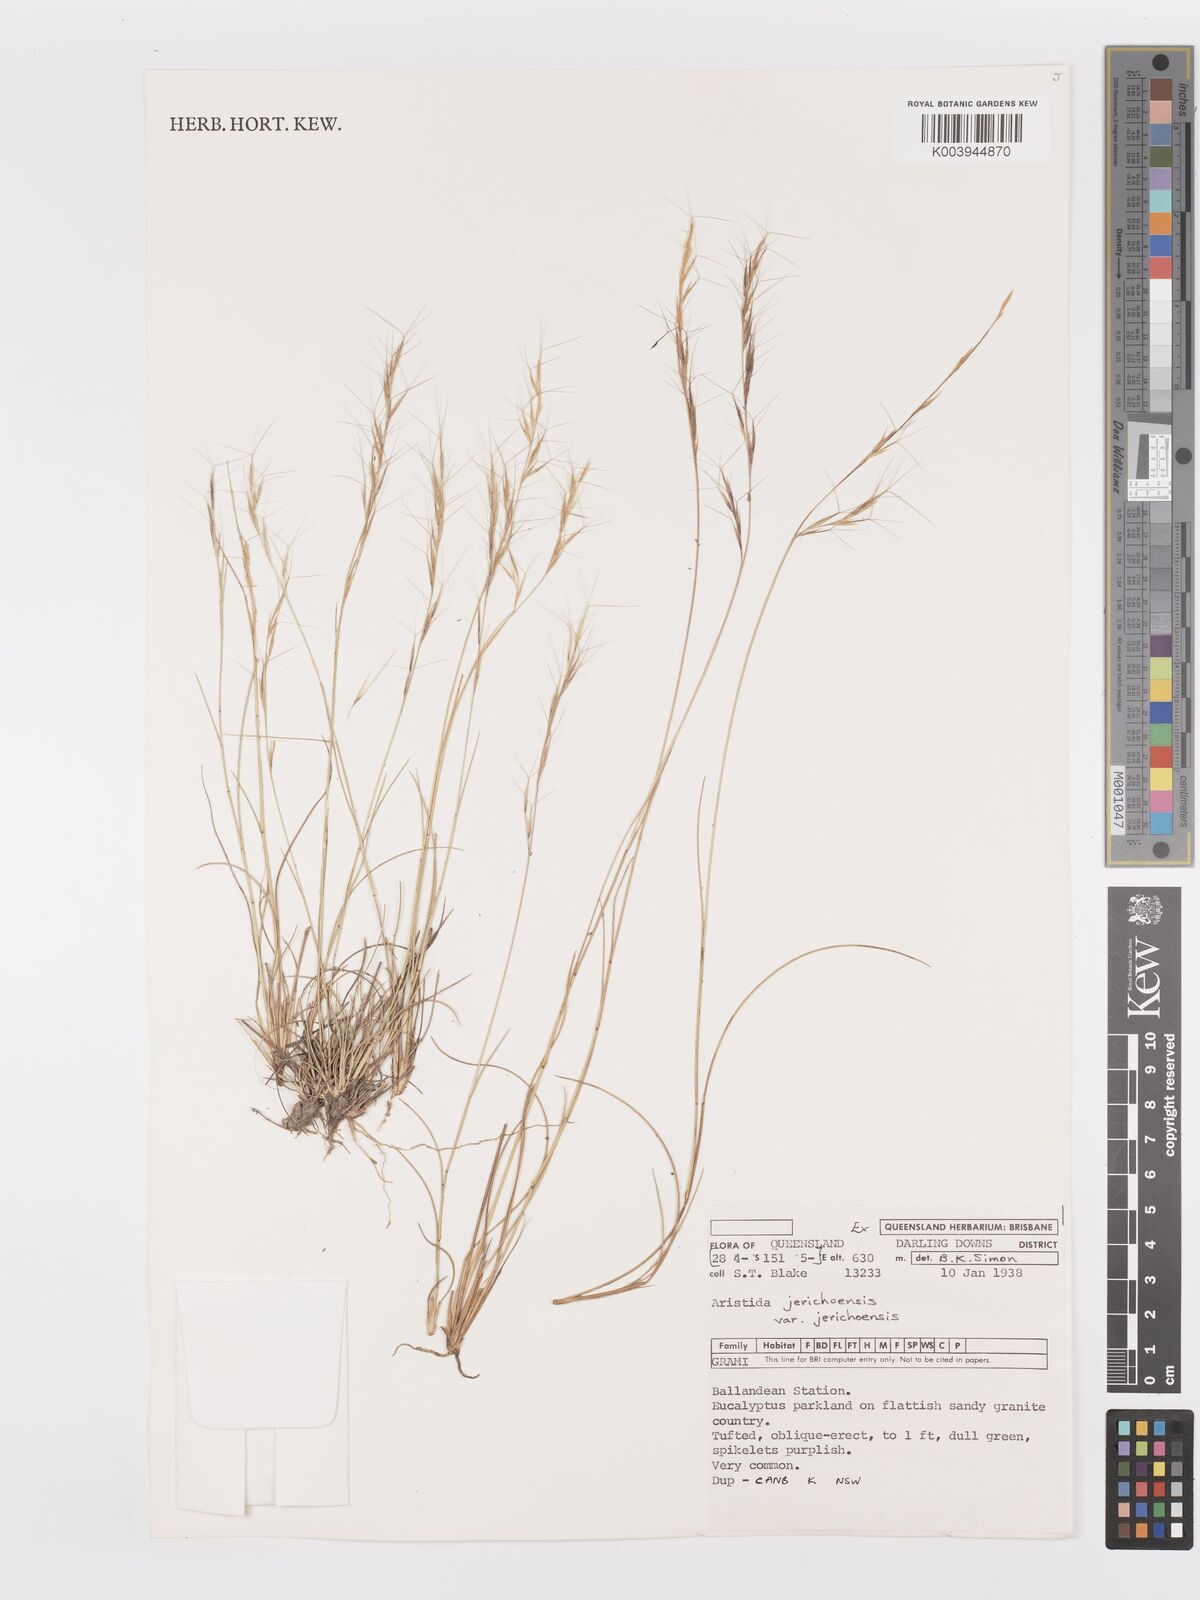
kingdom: Plantae
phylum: Tracheophyta
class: Liliopsida
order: Poales
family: Poaceae
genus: Aristida
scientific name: Aristida jerichoensis
